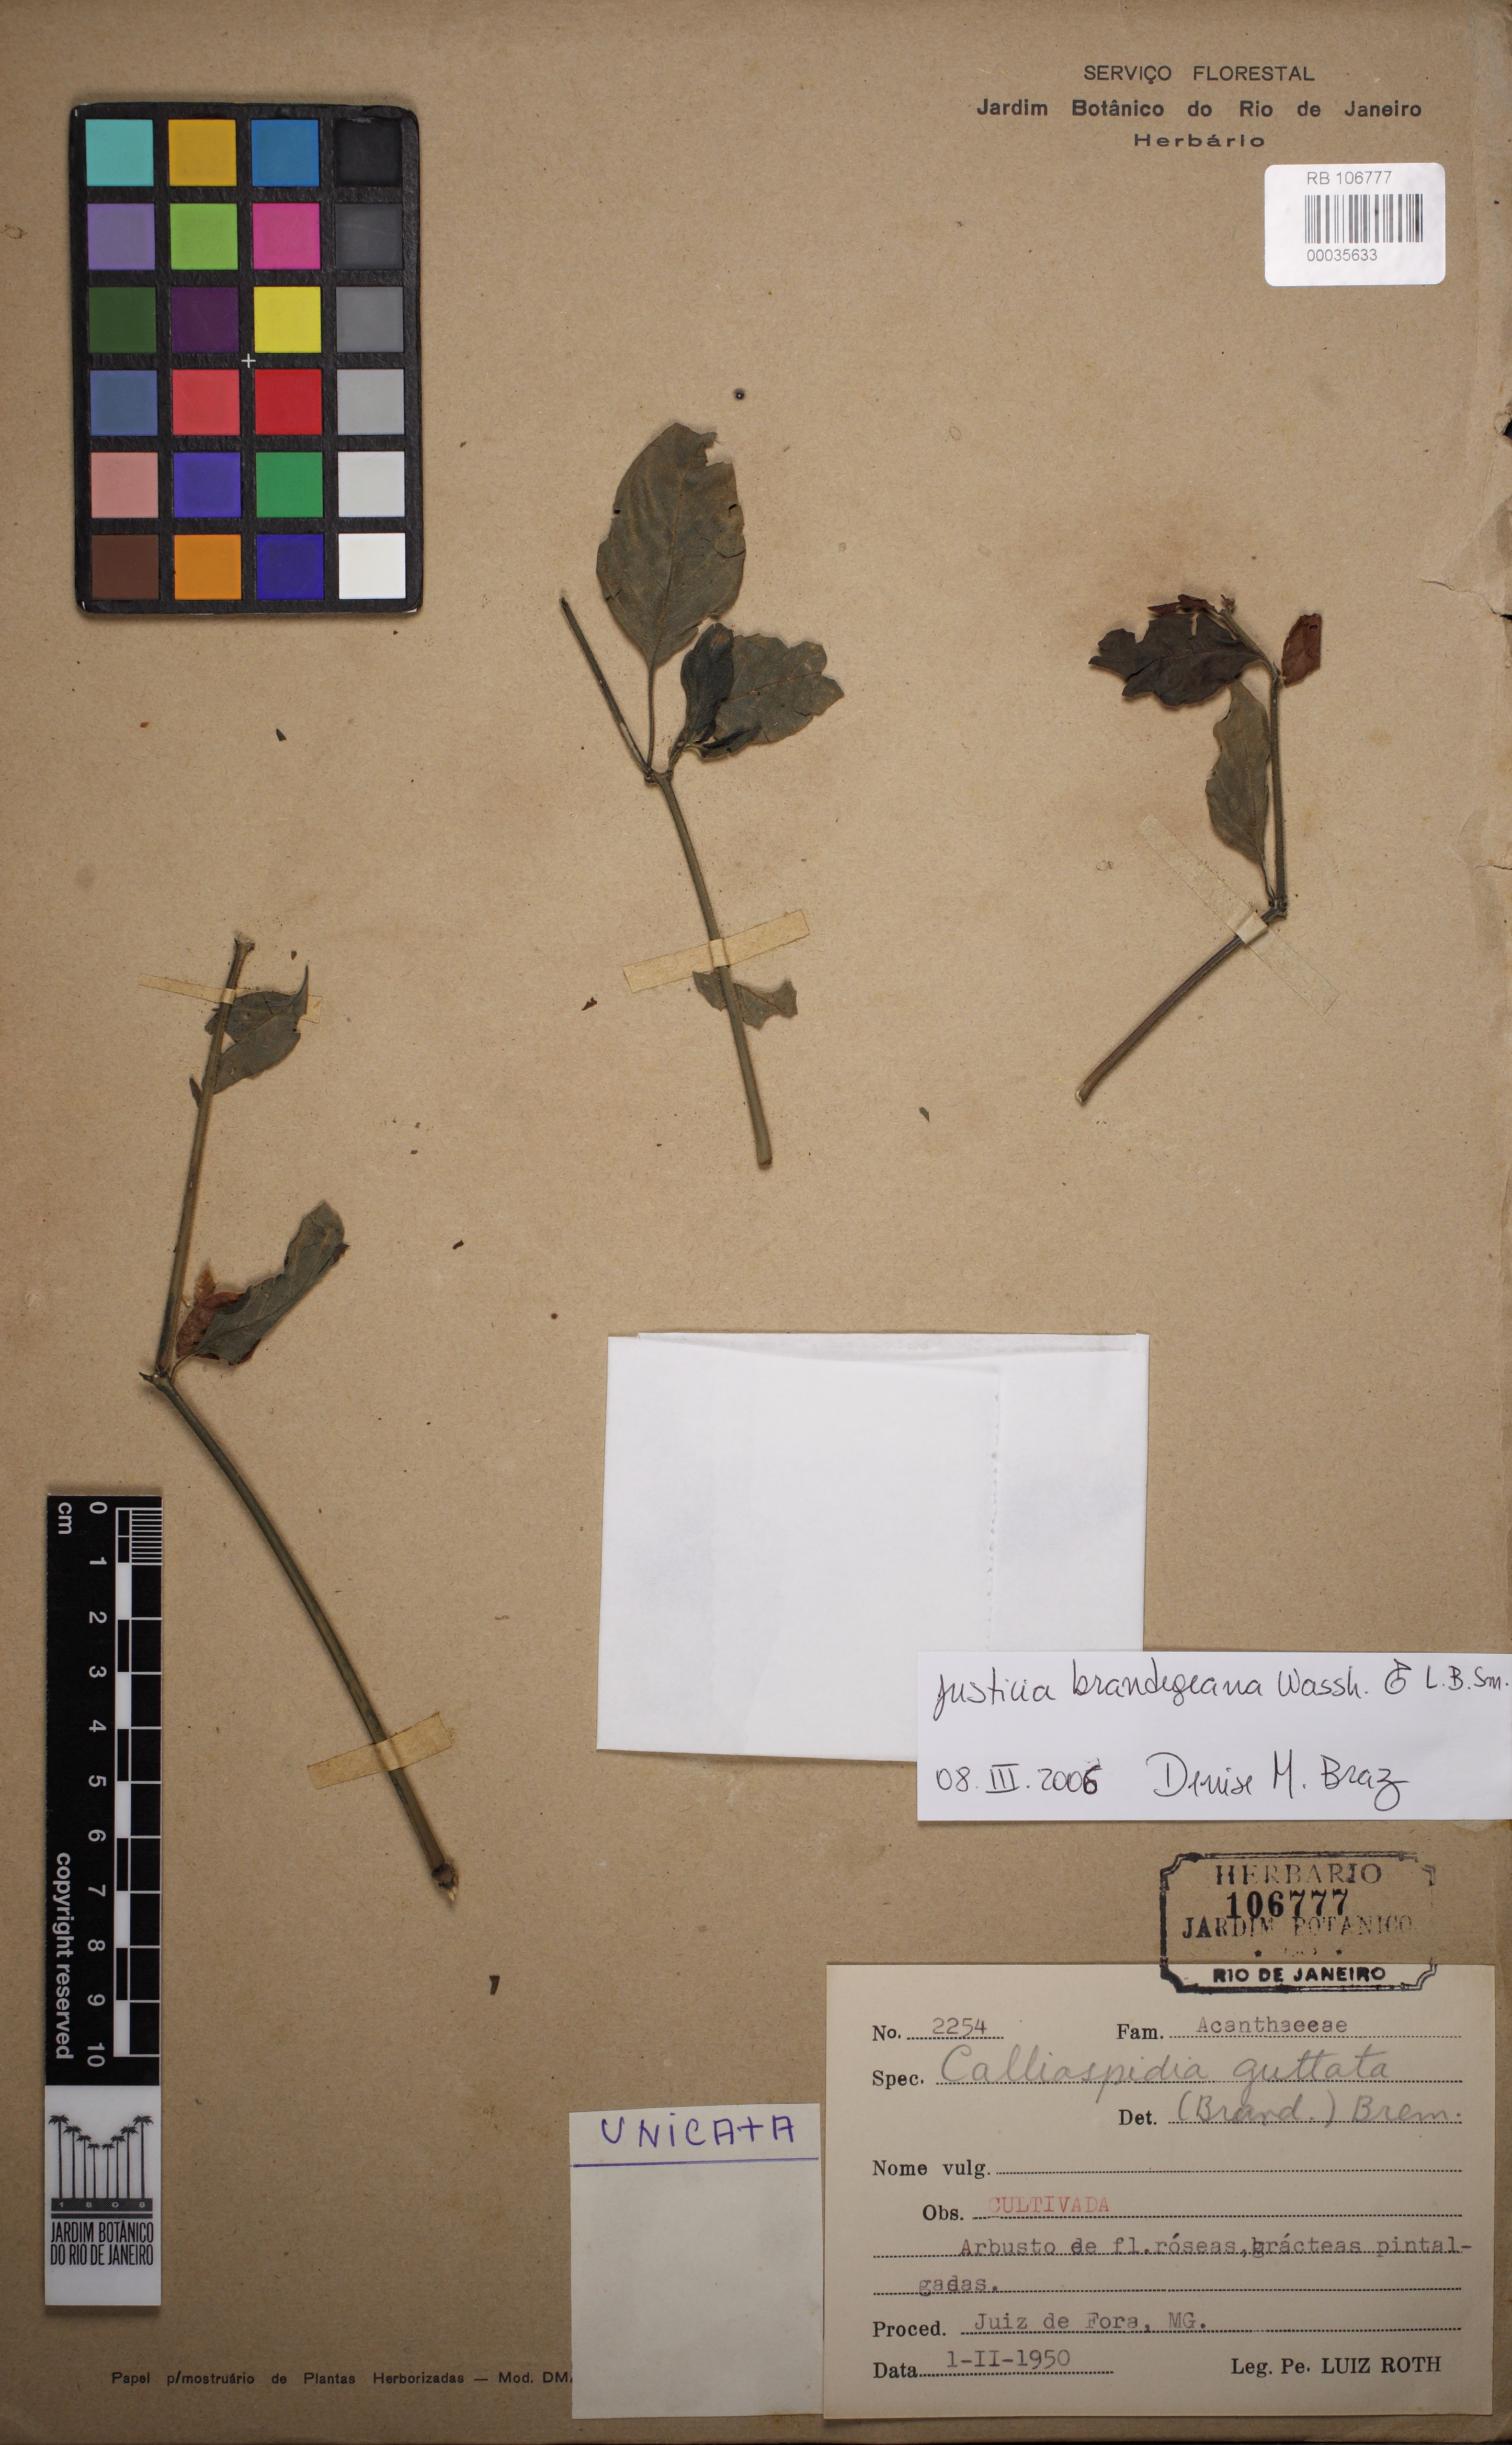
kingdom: Plantae
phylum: Tracheophyta
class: Magnoliopsida
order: Lamiales
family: Acanthaceae
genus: Justicia
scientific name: Justicia brandegeeana
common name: Shrimpplant
